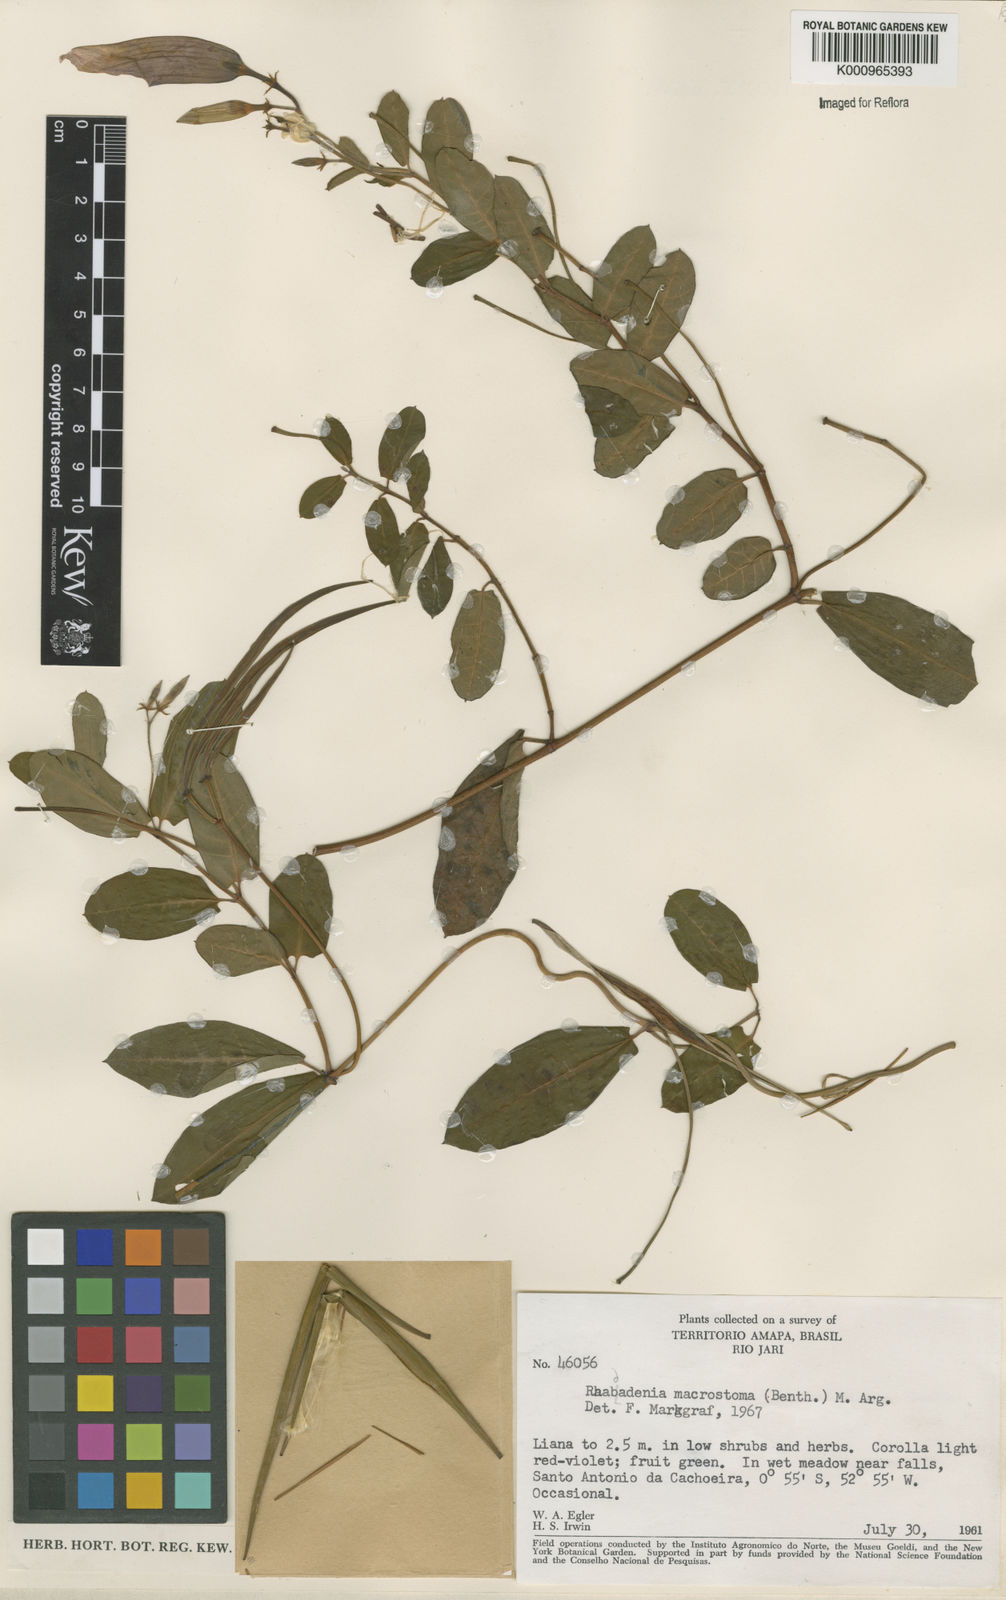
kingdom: Plantae
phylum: Tracheophyta
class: Magnoliopsida
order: Gentianales
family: Apocynaceae
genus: Rhabdadenia
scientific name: Rhabdadenia madida
